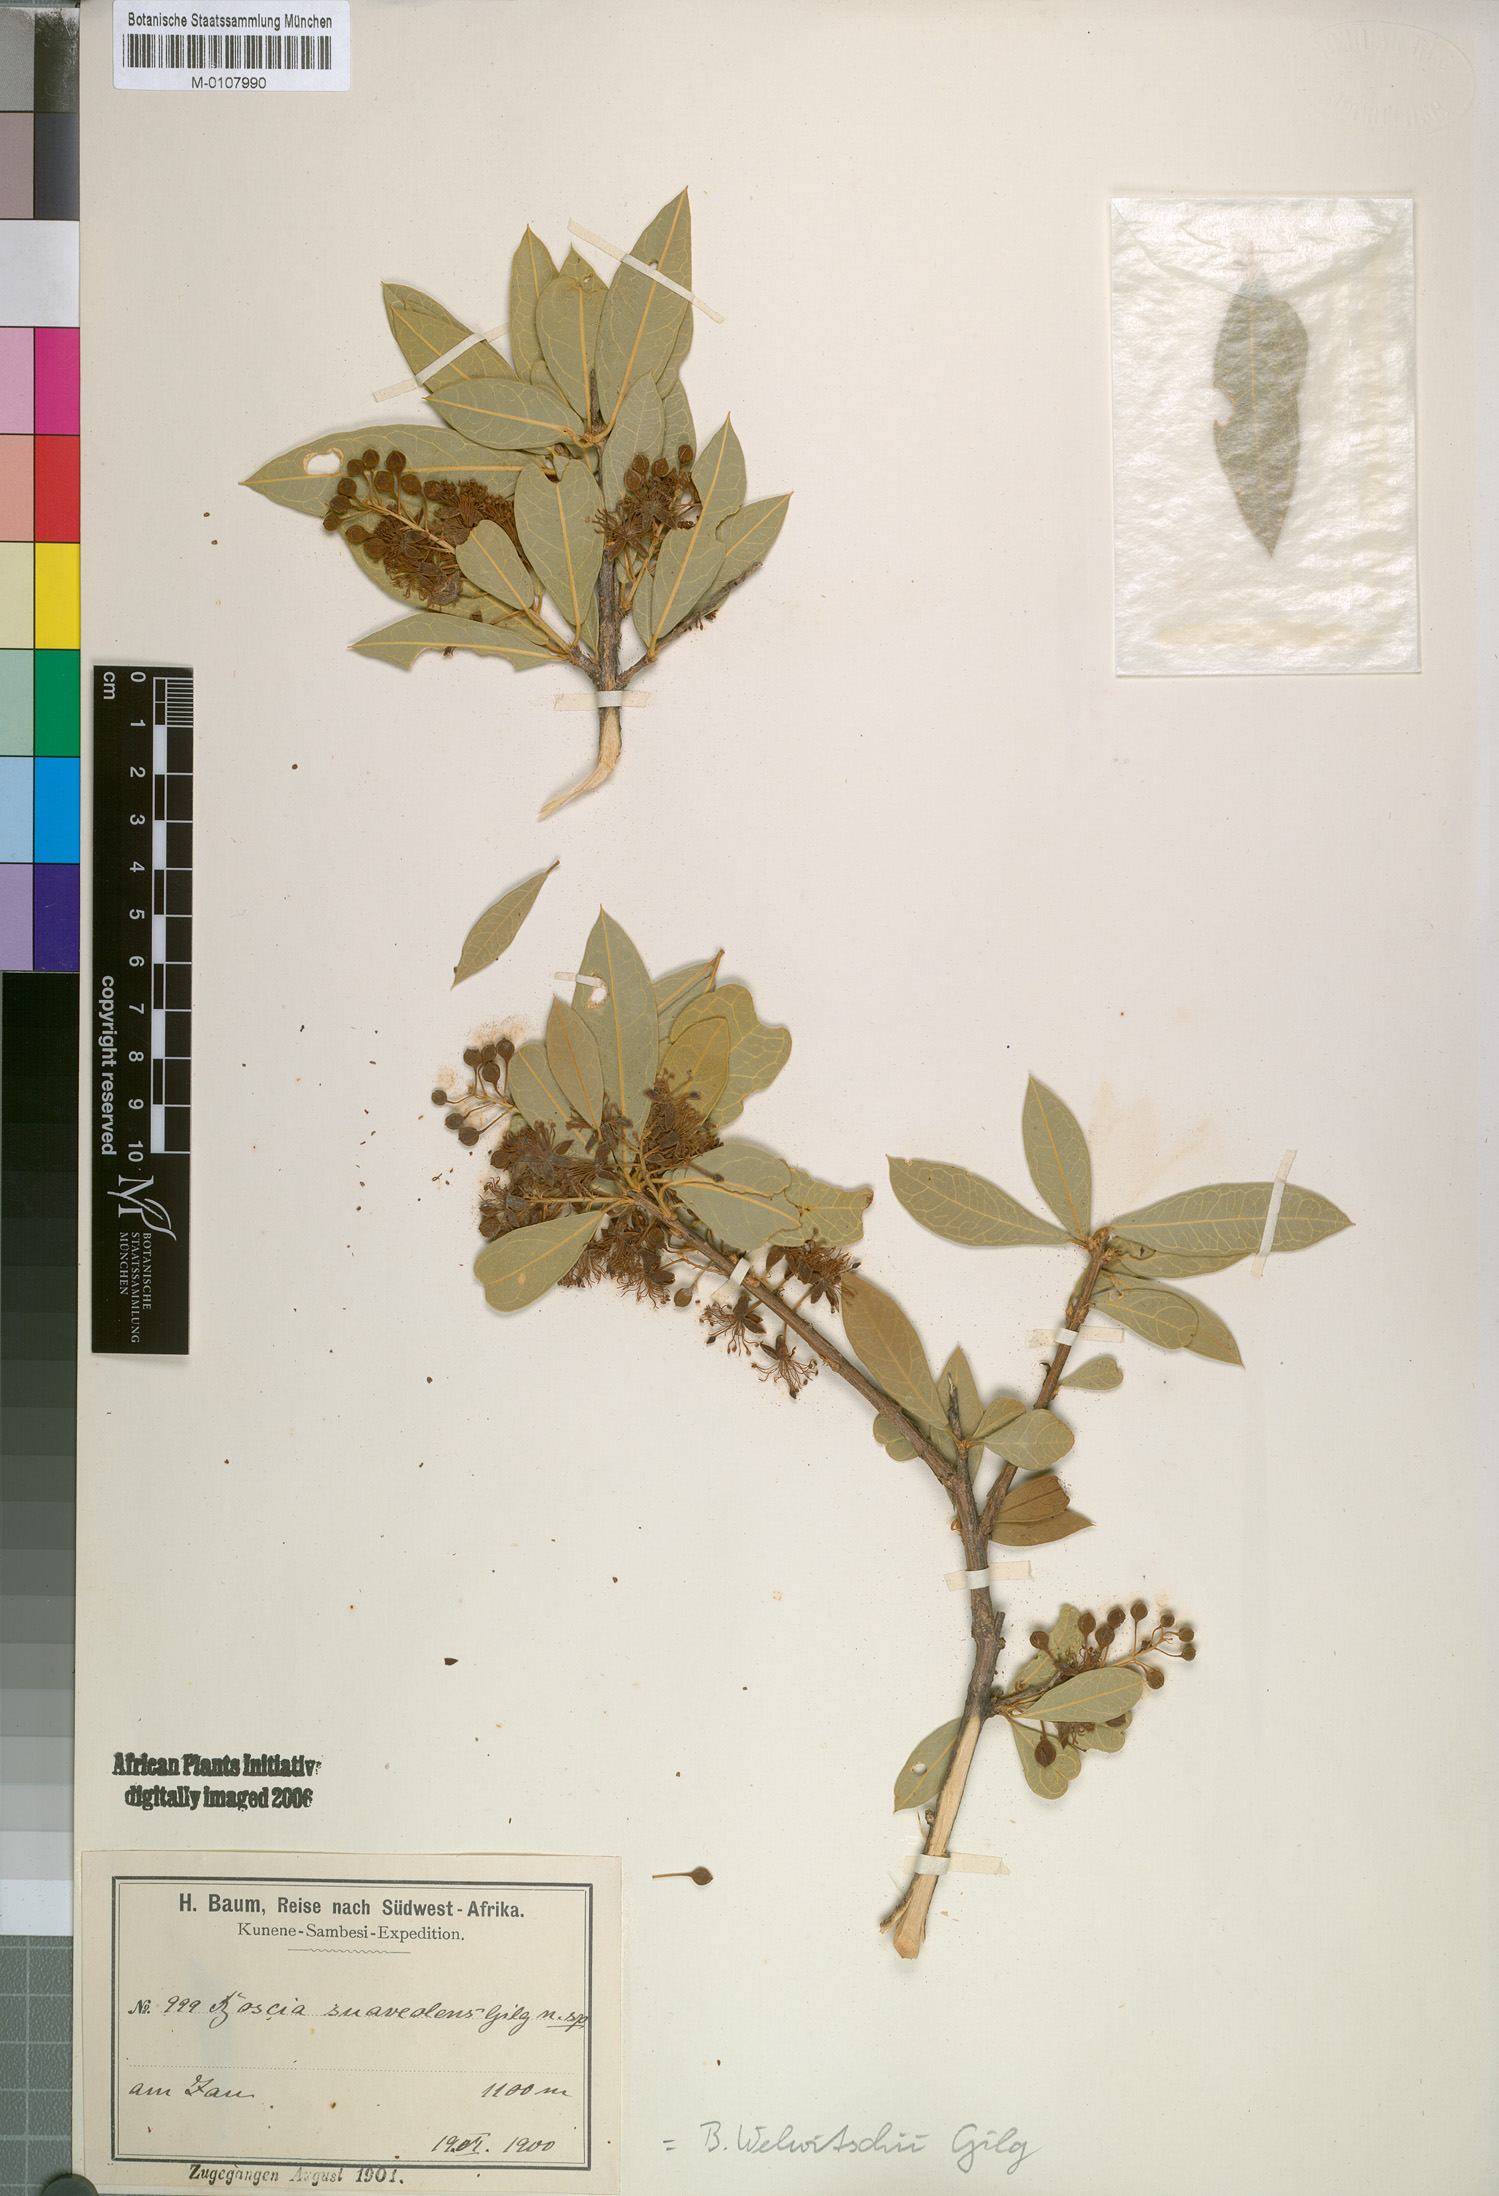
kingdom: Plantae
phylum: Tracheophyta
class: Magnoliopsida
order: Brassicales
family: Capparaceae
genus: Boscia
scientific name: Boscia mossambicensis
